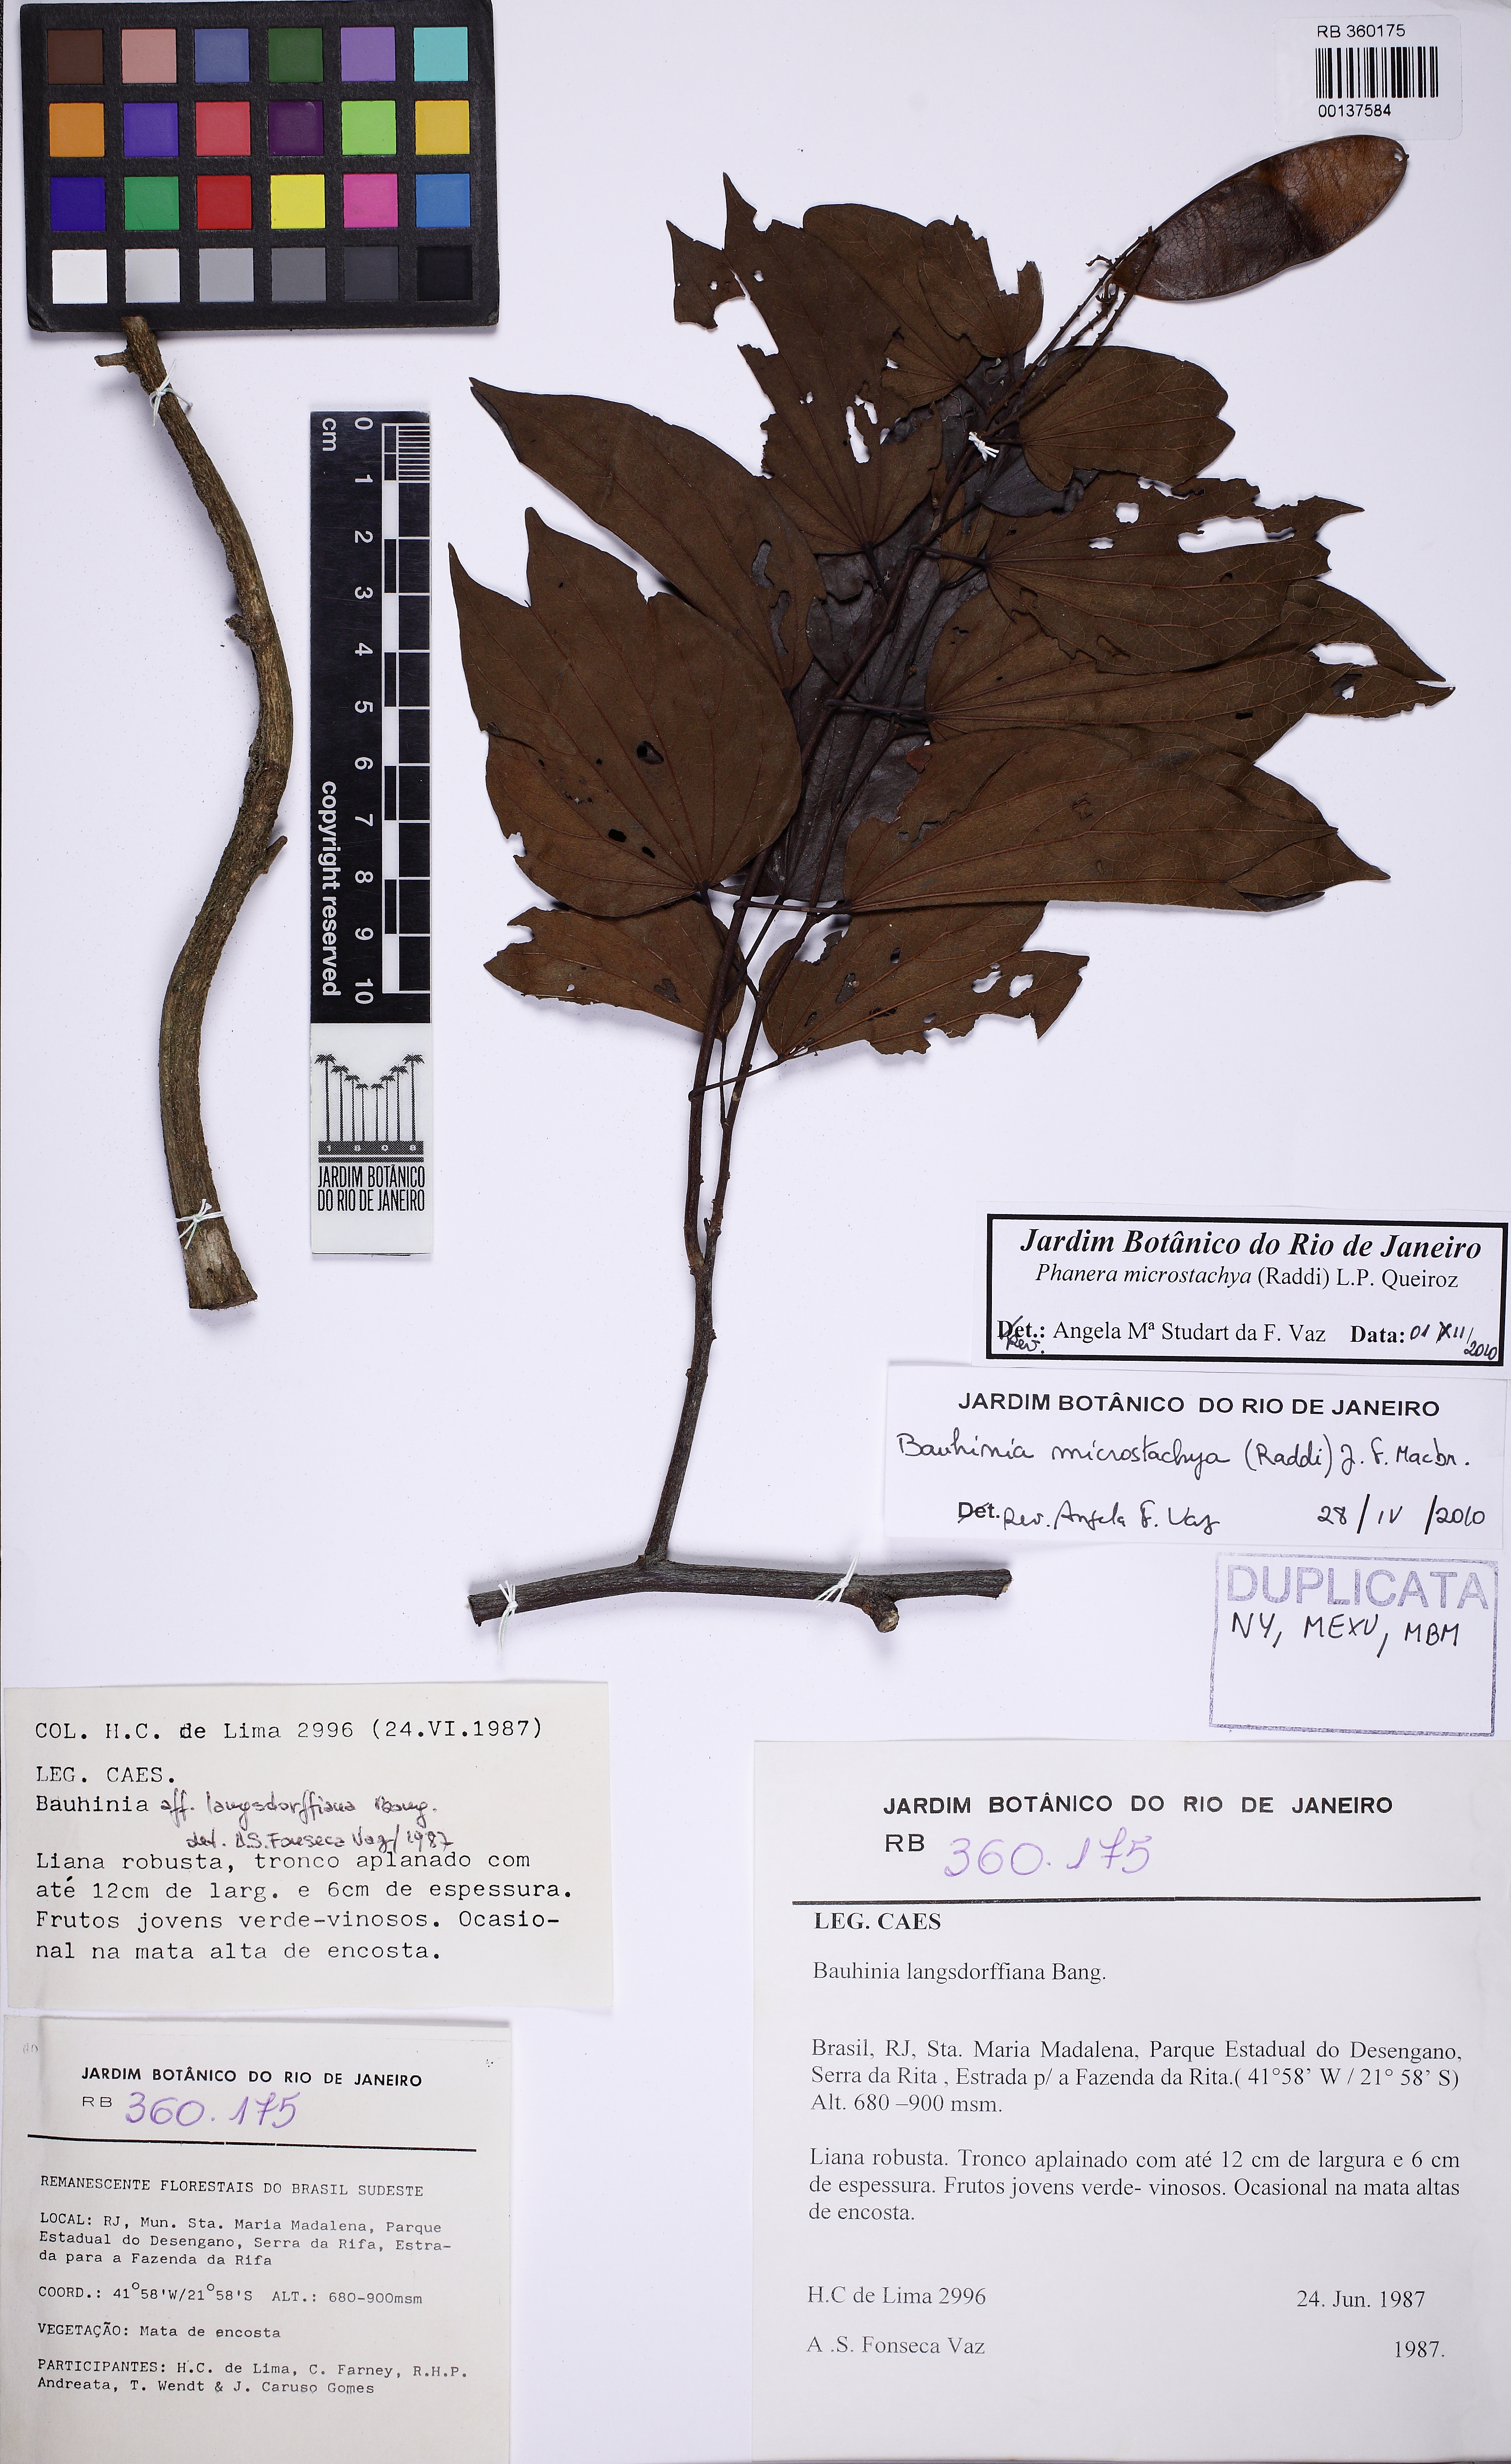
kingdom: Plantae
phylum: Tracheophyta
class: Magnoliopsida
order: Fabales
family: Fabaceae
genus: Schnella
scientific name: Schnella microstachya
